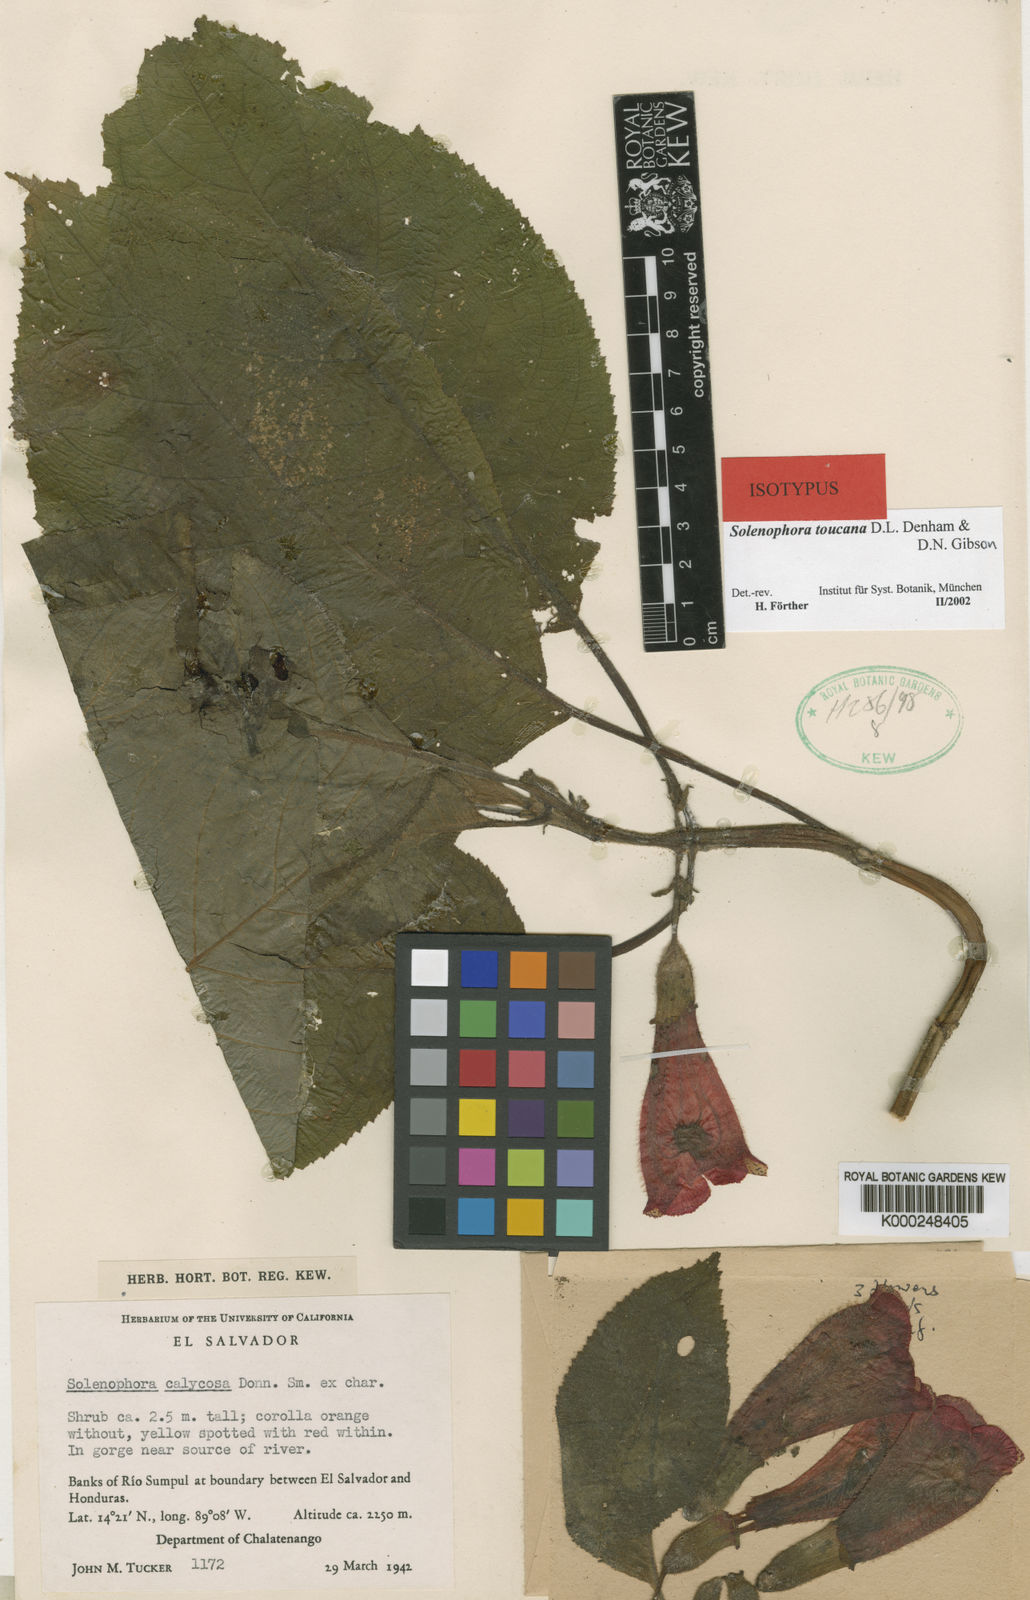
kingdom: Plantae
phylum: Tracheophyta
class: Magnoliopsida
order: Lamiales
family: Gesneriaceae
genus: Solenophora
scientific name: Solenophora calycosa
